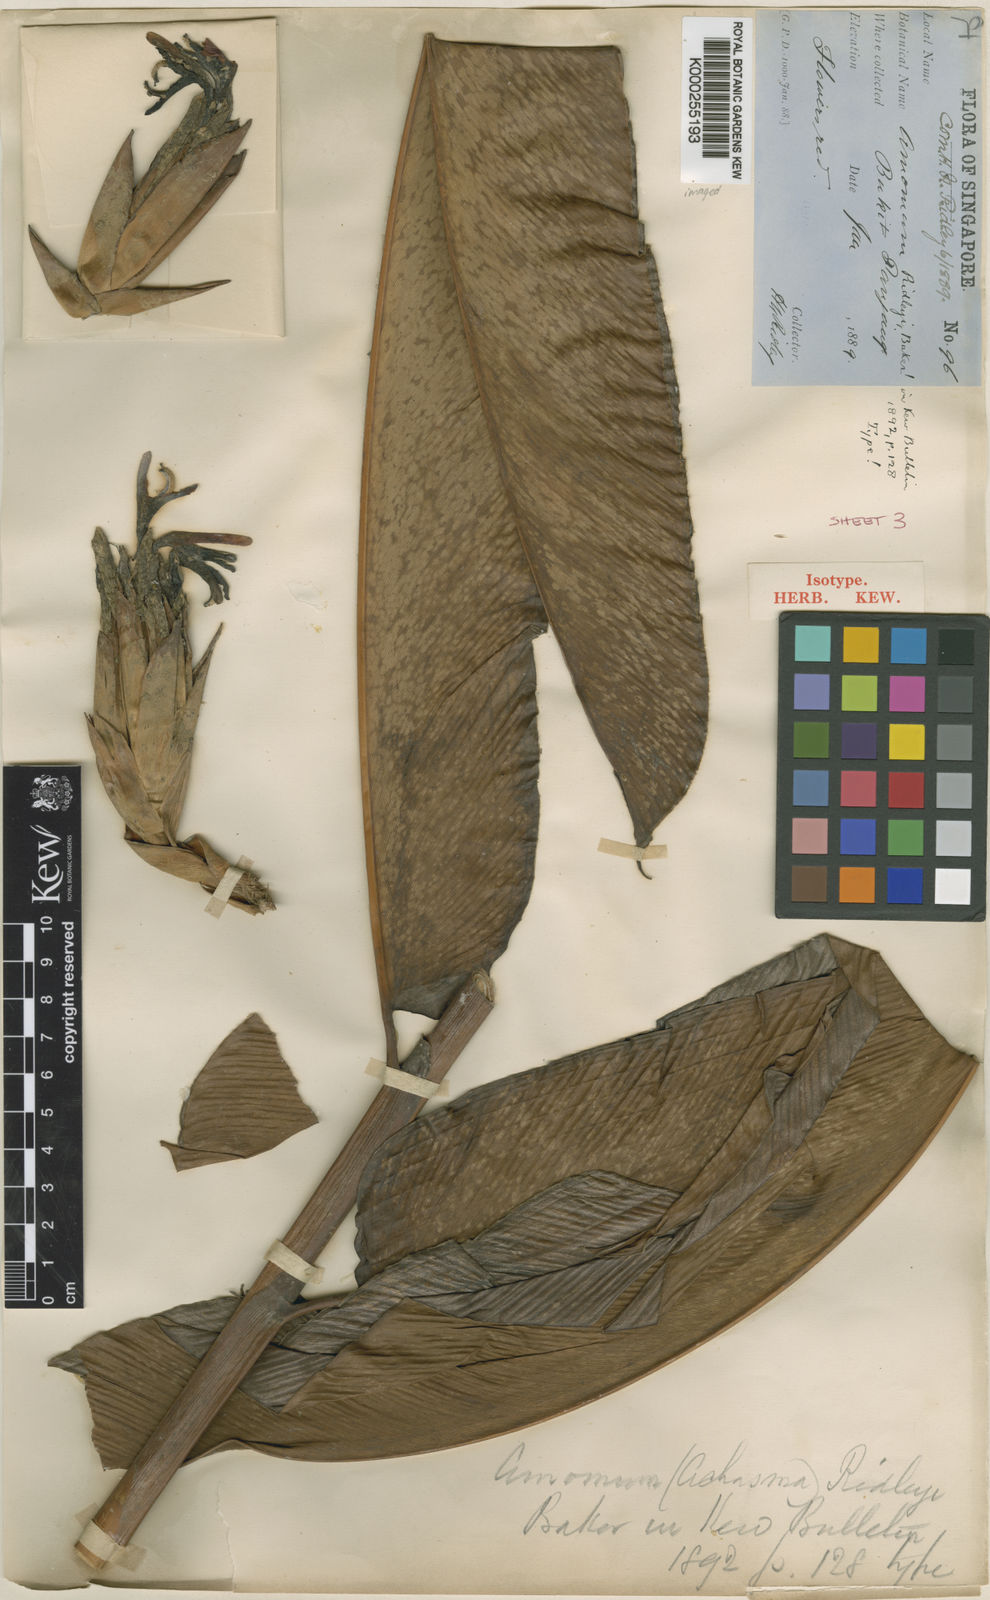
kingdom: Plantae
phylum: Tracheophyta
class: Liliopsida
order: Zingiberales
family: Zingiberaceae
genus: Hornstedtia
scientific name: Hornstedtia leonurus
